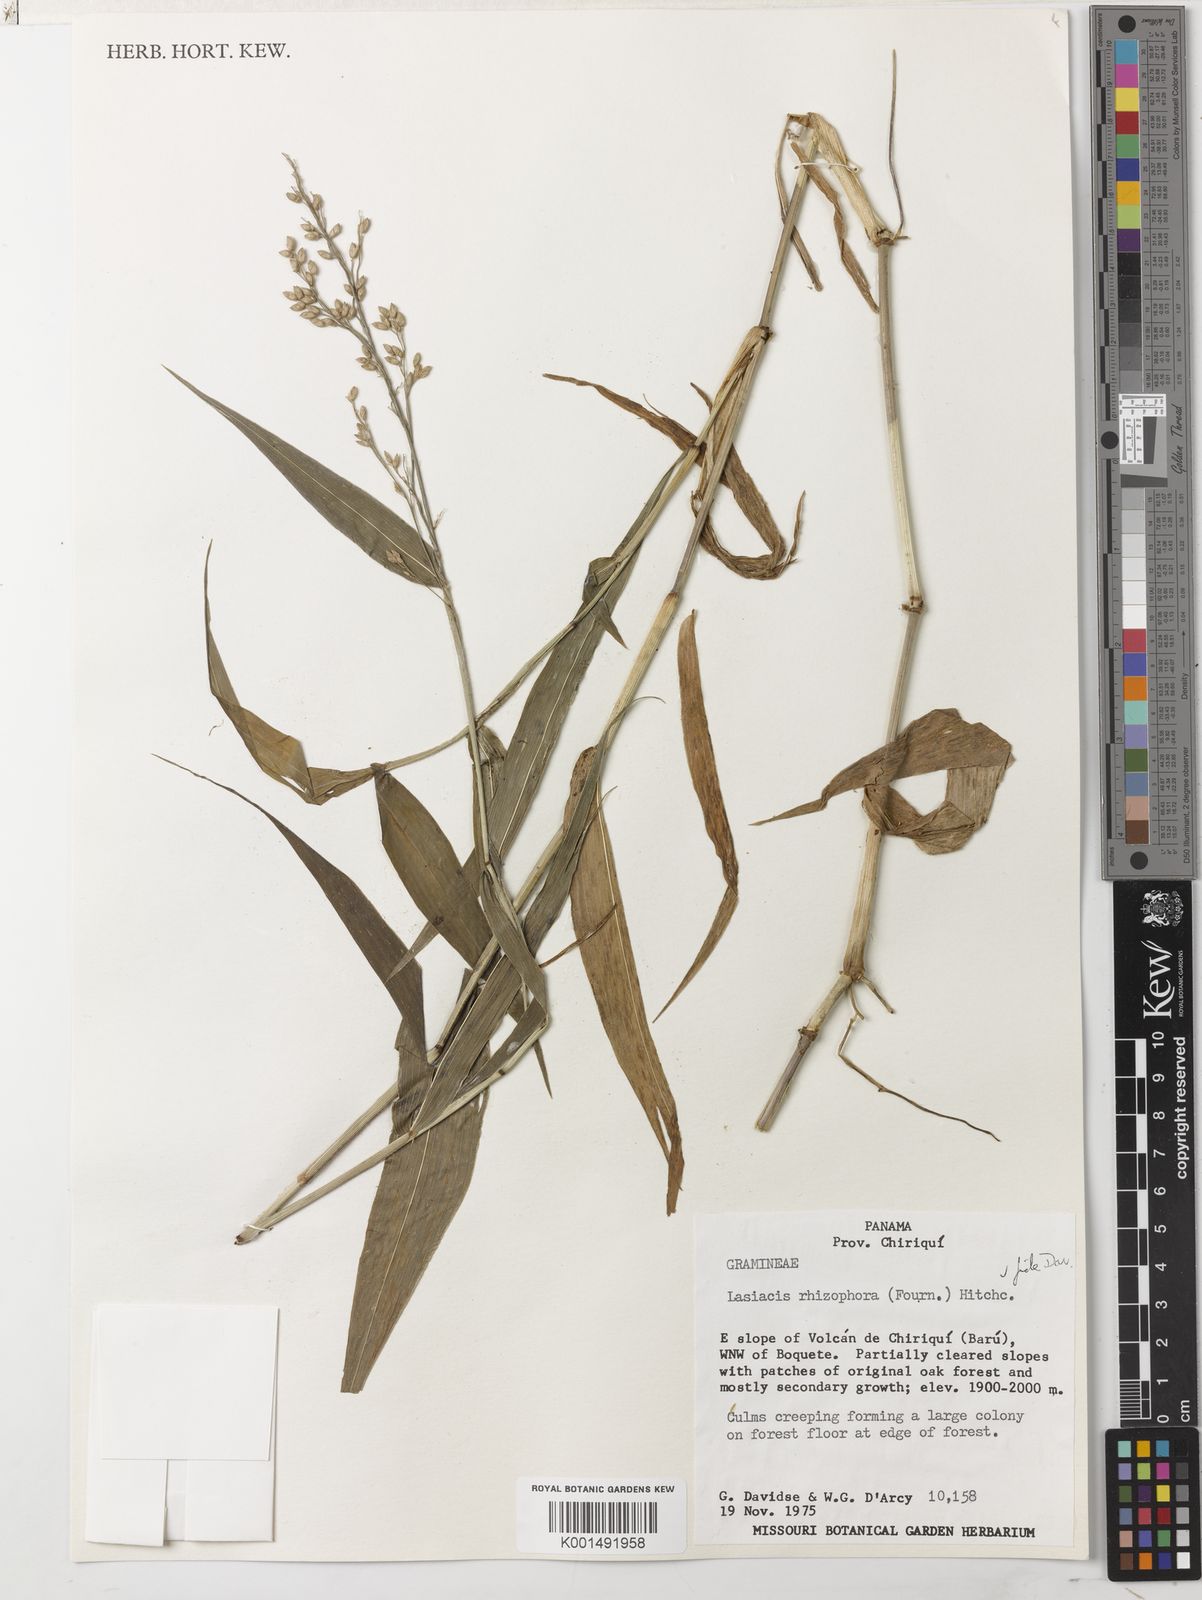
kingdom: Plantae
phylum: Tracheophyta
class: Liliopsida
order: Poales
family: Poaceae
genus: Lasiacis
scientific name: Lasiacis rhizophora
